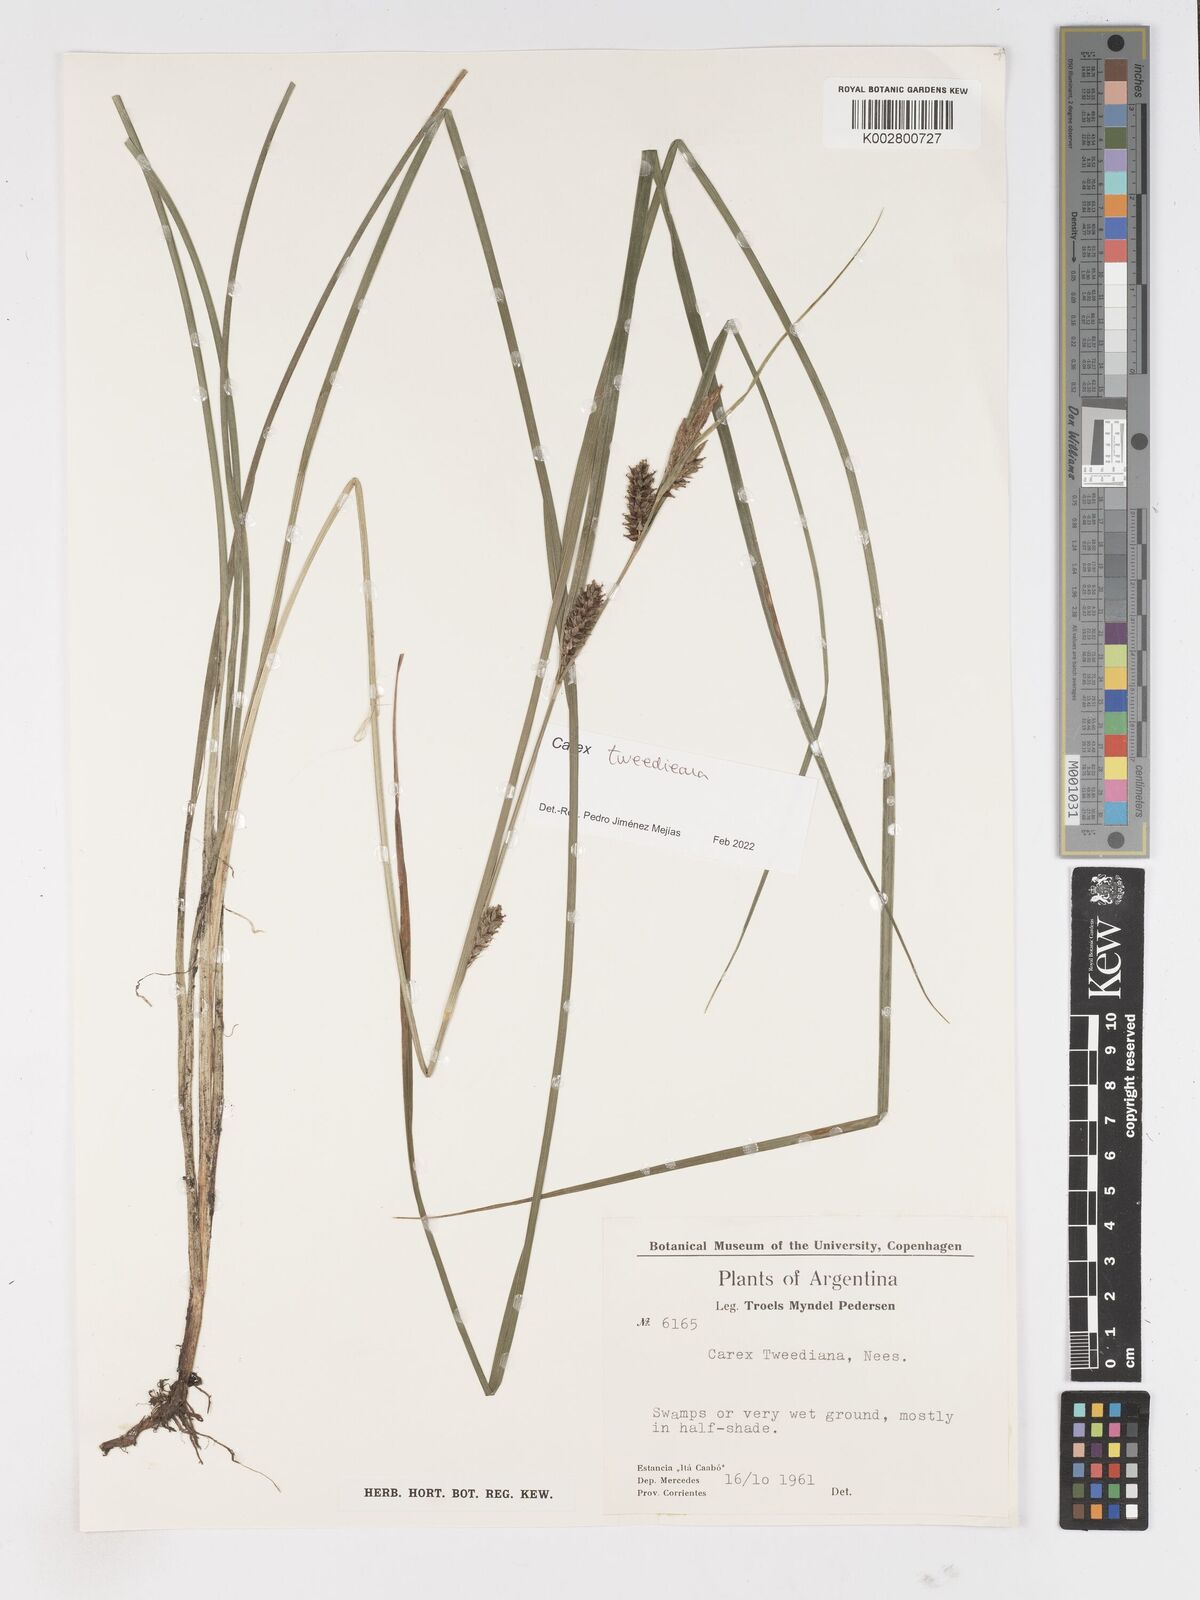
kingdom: Plantae
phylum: Tracheophyta
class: Liliopsida
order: Poales
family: Cyperaceae
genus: Carex
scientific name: Carex tweedieana
